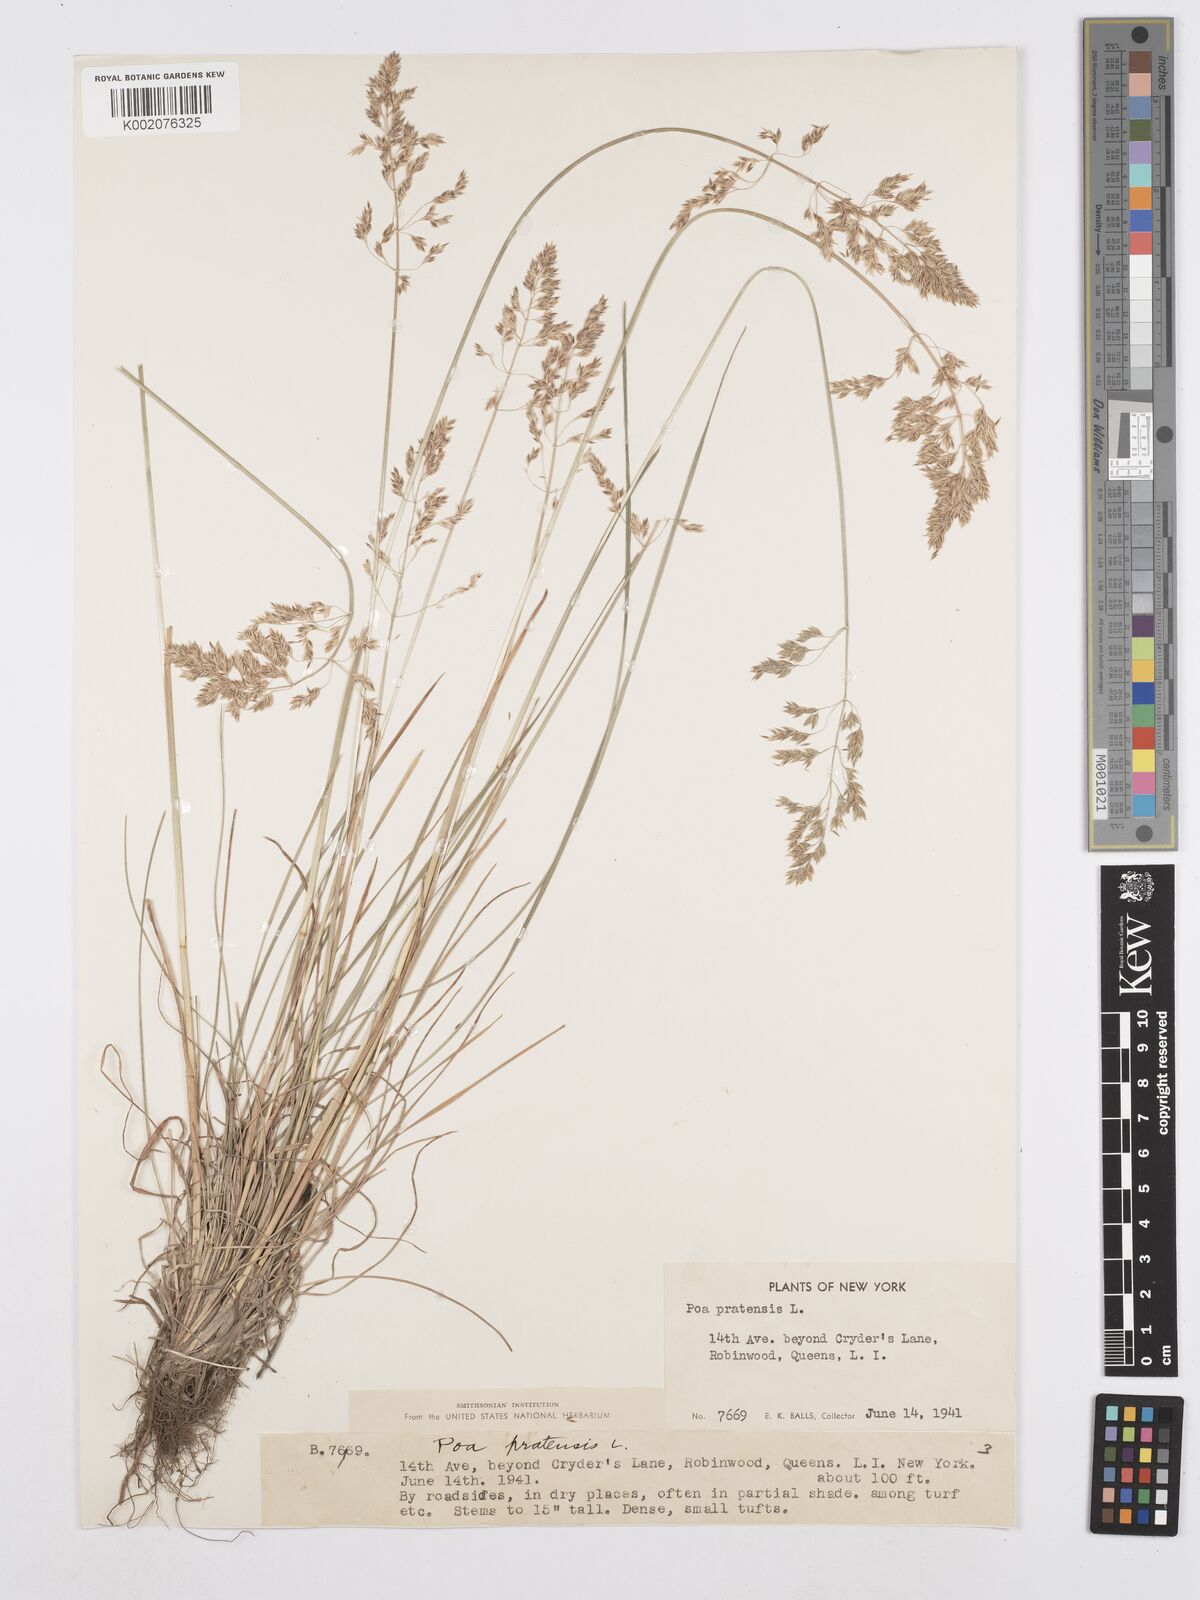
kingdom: Plantae
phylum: Tracheophyta
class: Liliopsida
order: Poales
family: Poaceae
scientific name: Poaceae
